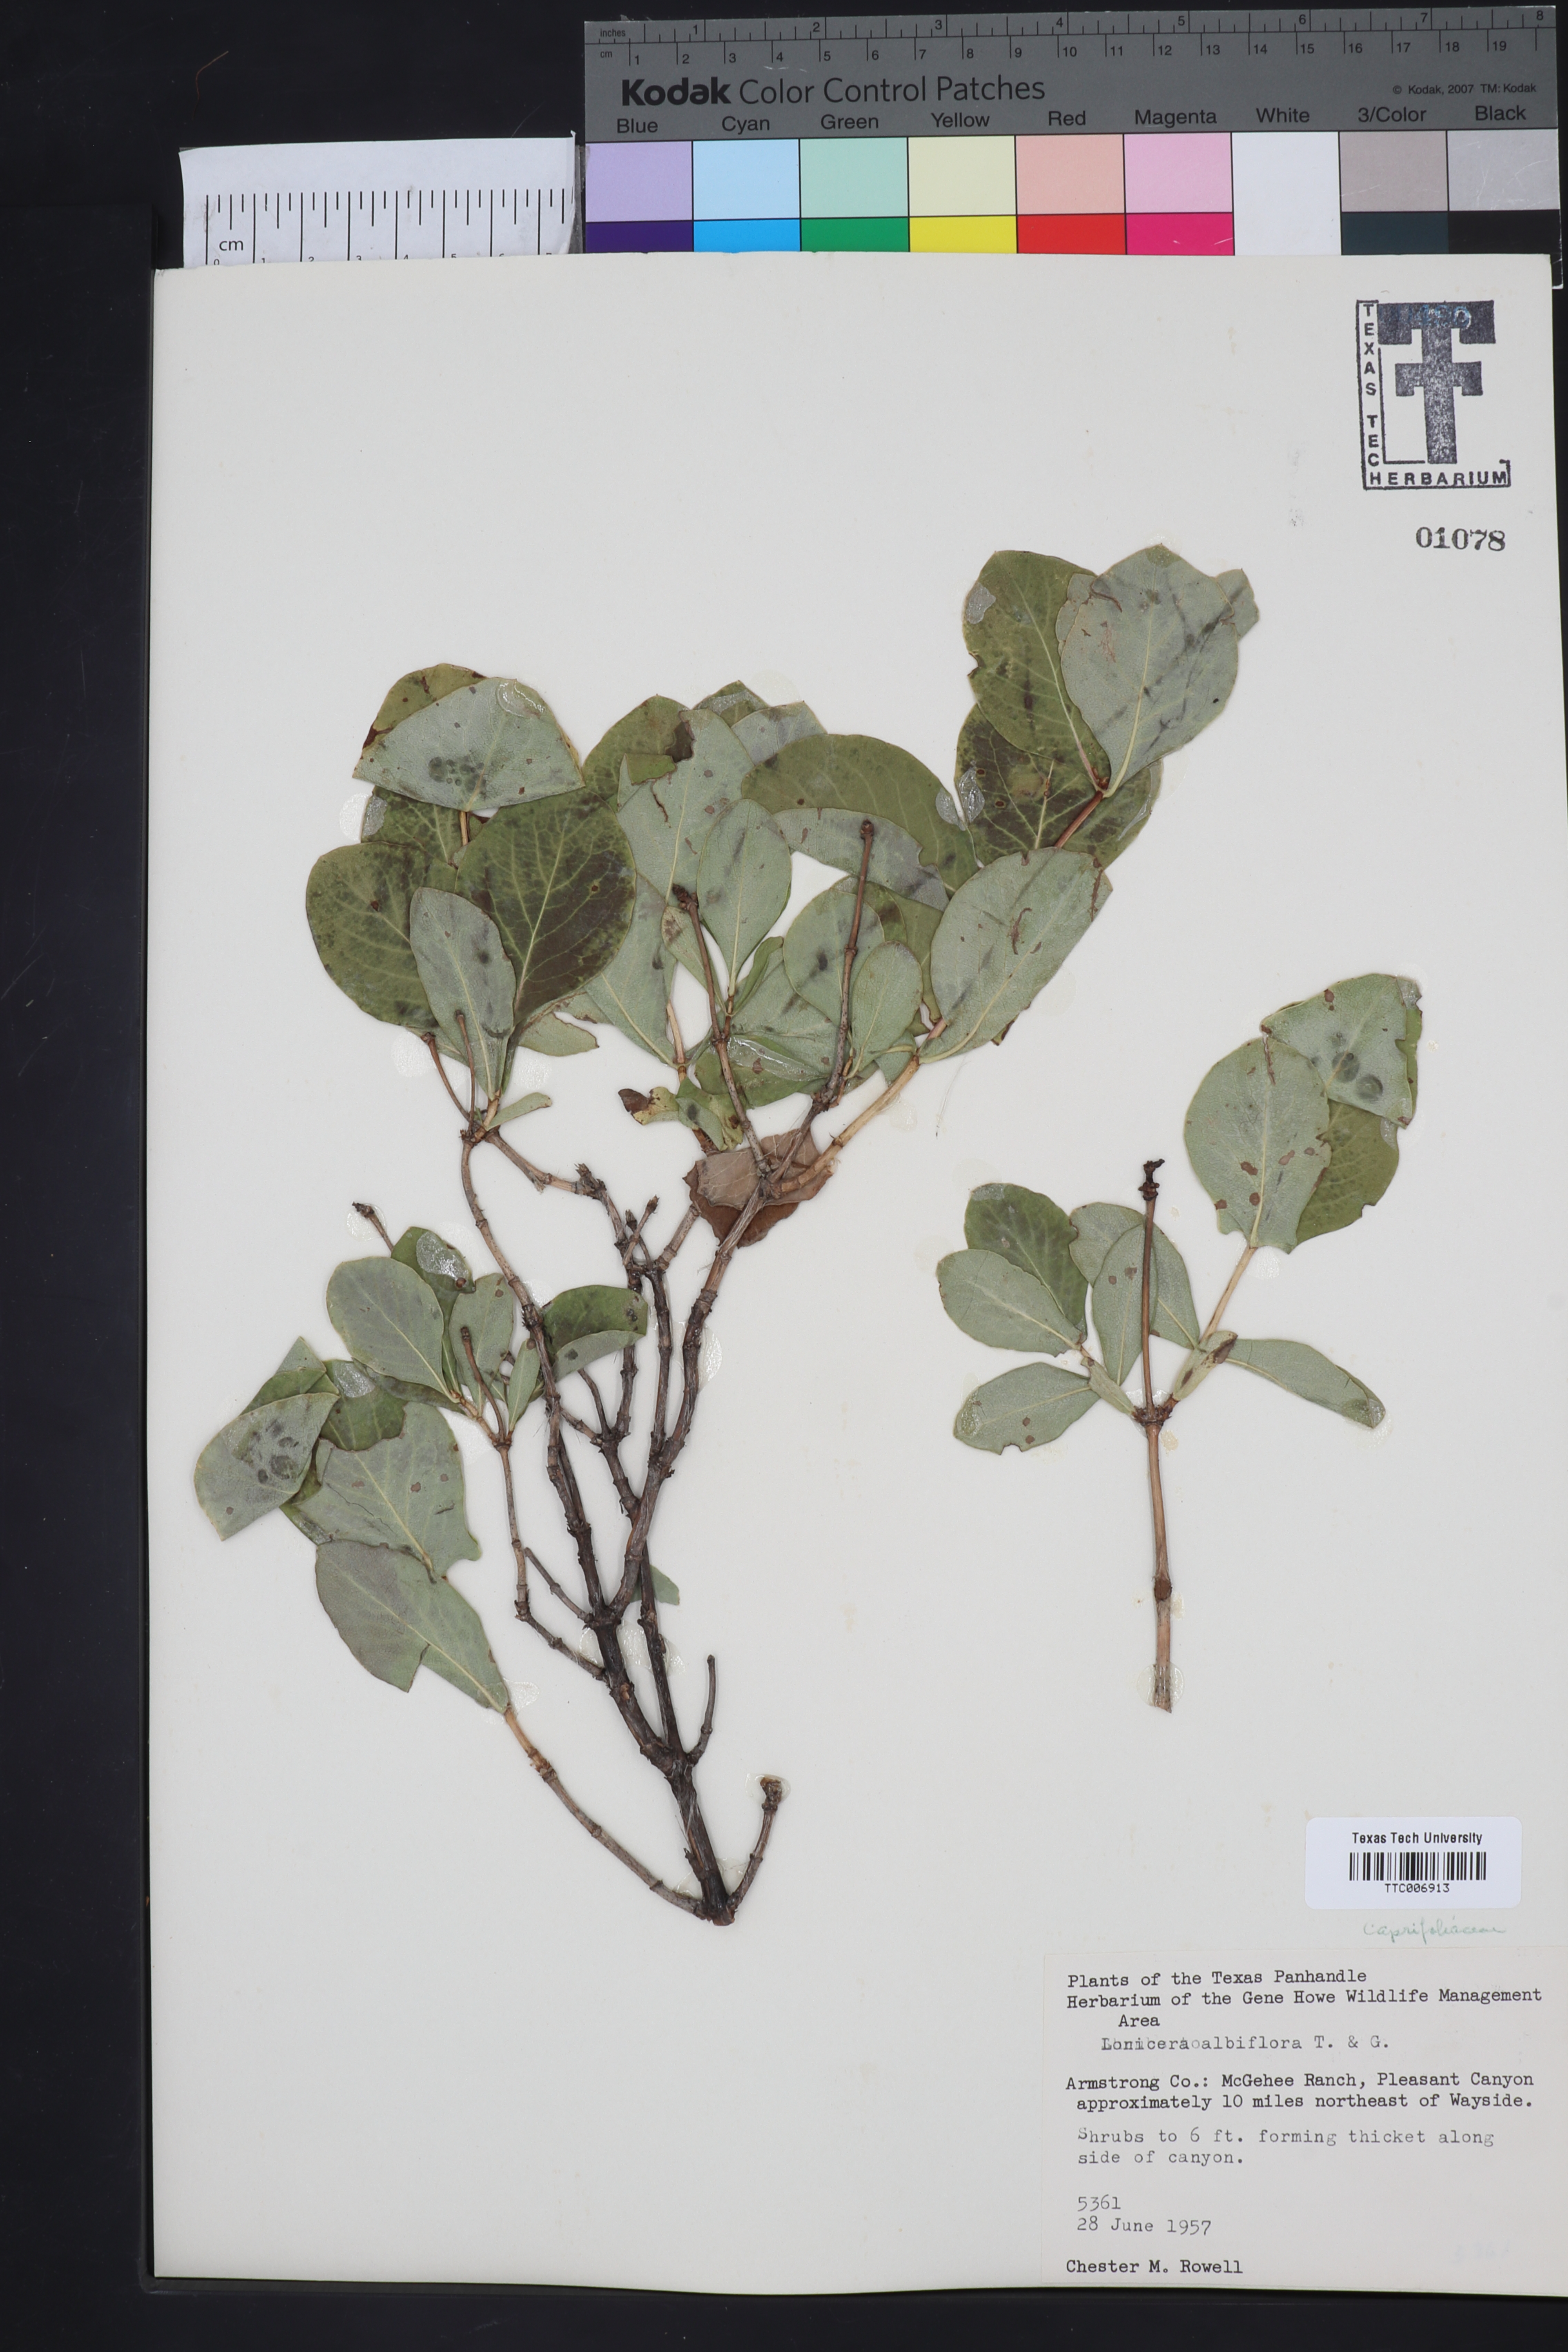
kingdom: Plantae
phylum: Tracheophyta
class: Magnoliopsida
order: Dipsacales
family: Caprifoliaceae
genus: Lonicera
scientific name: Lonicera albiflora
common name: White honeysuckle
